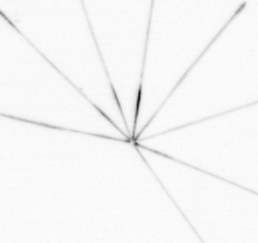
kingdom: Chromista
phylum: Ochrophyta
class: Bacillariophyceae
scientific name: Bacillariophyceae
